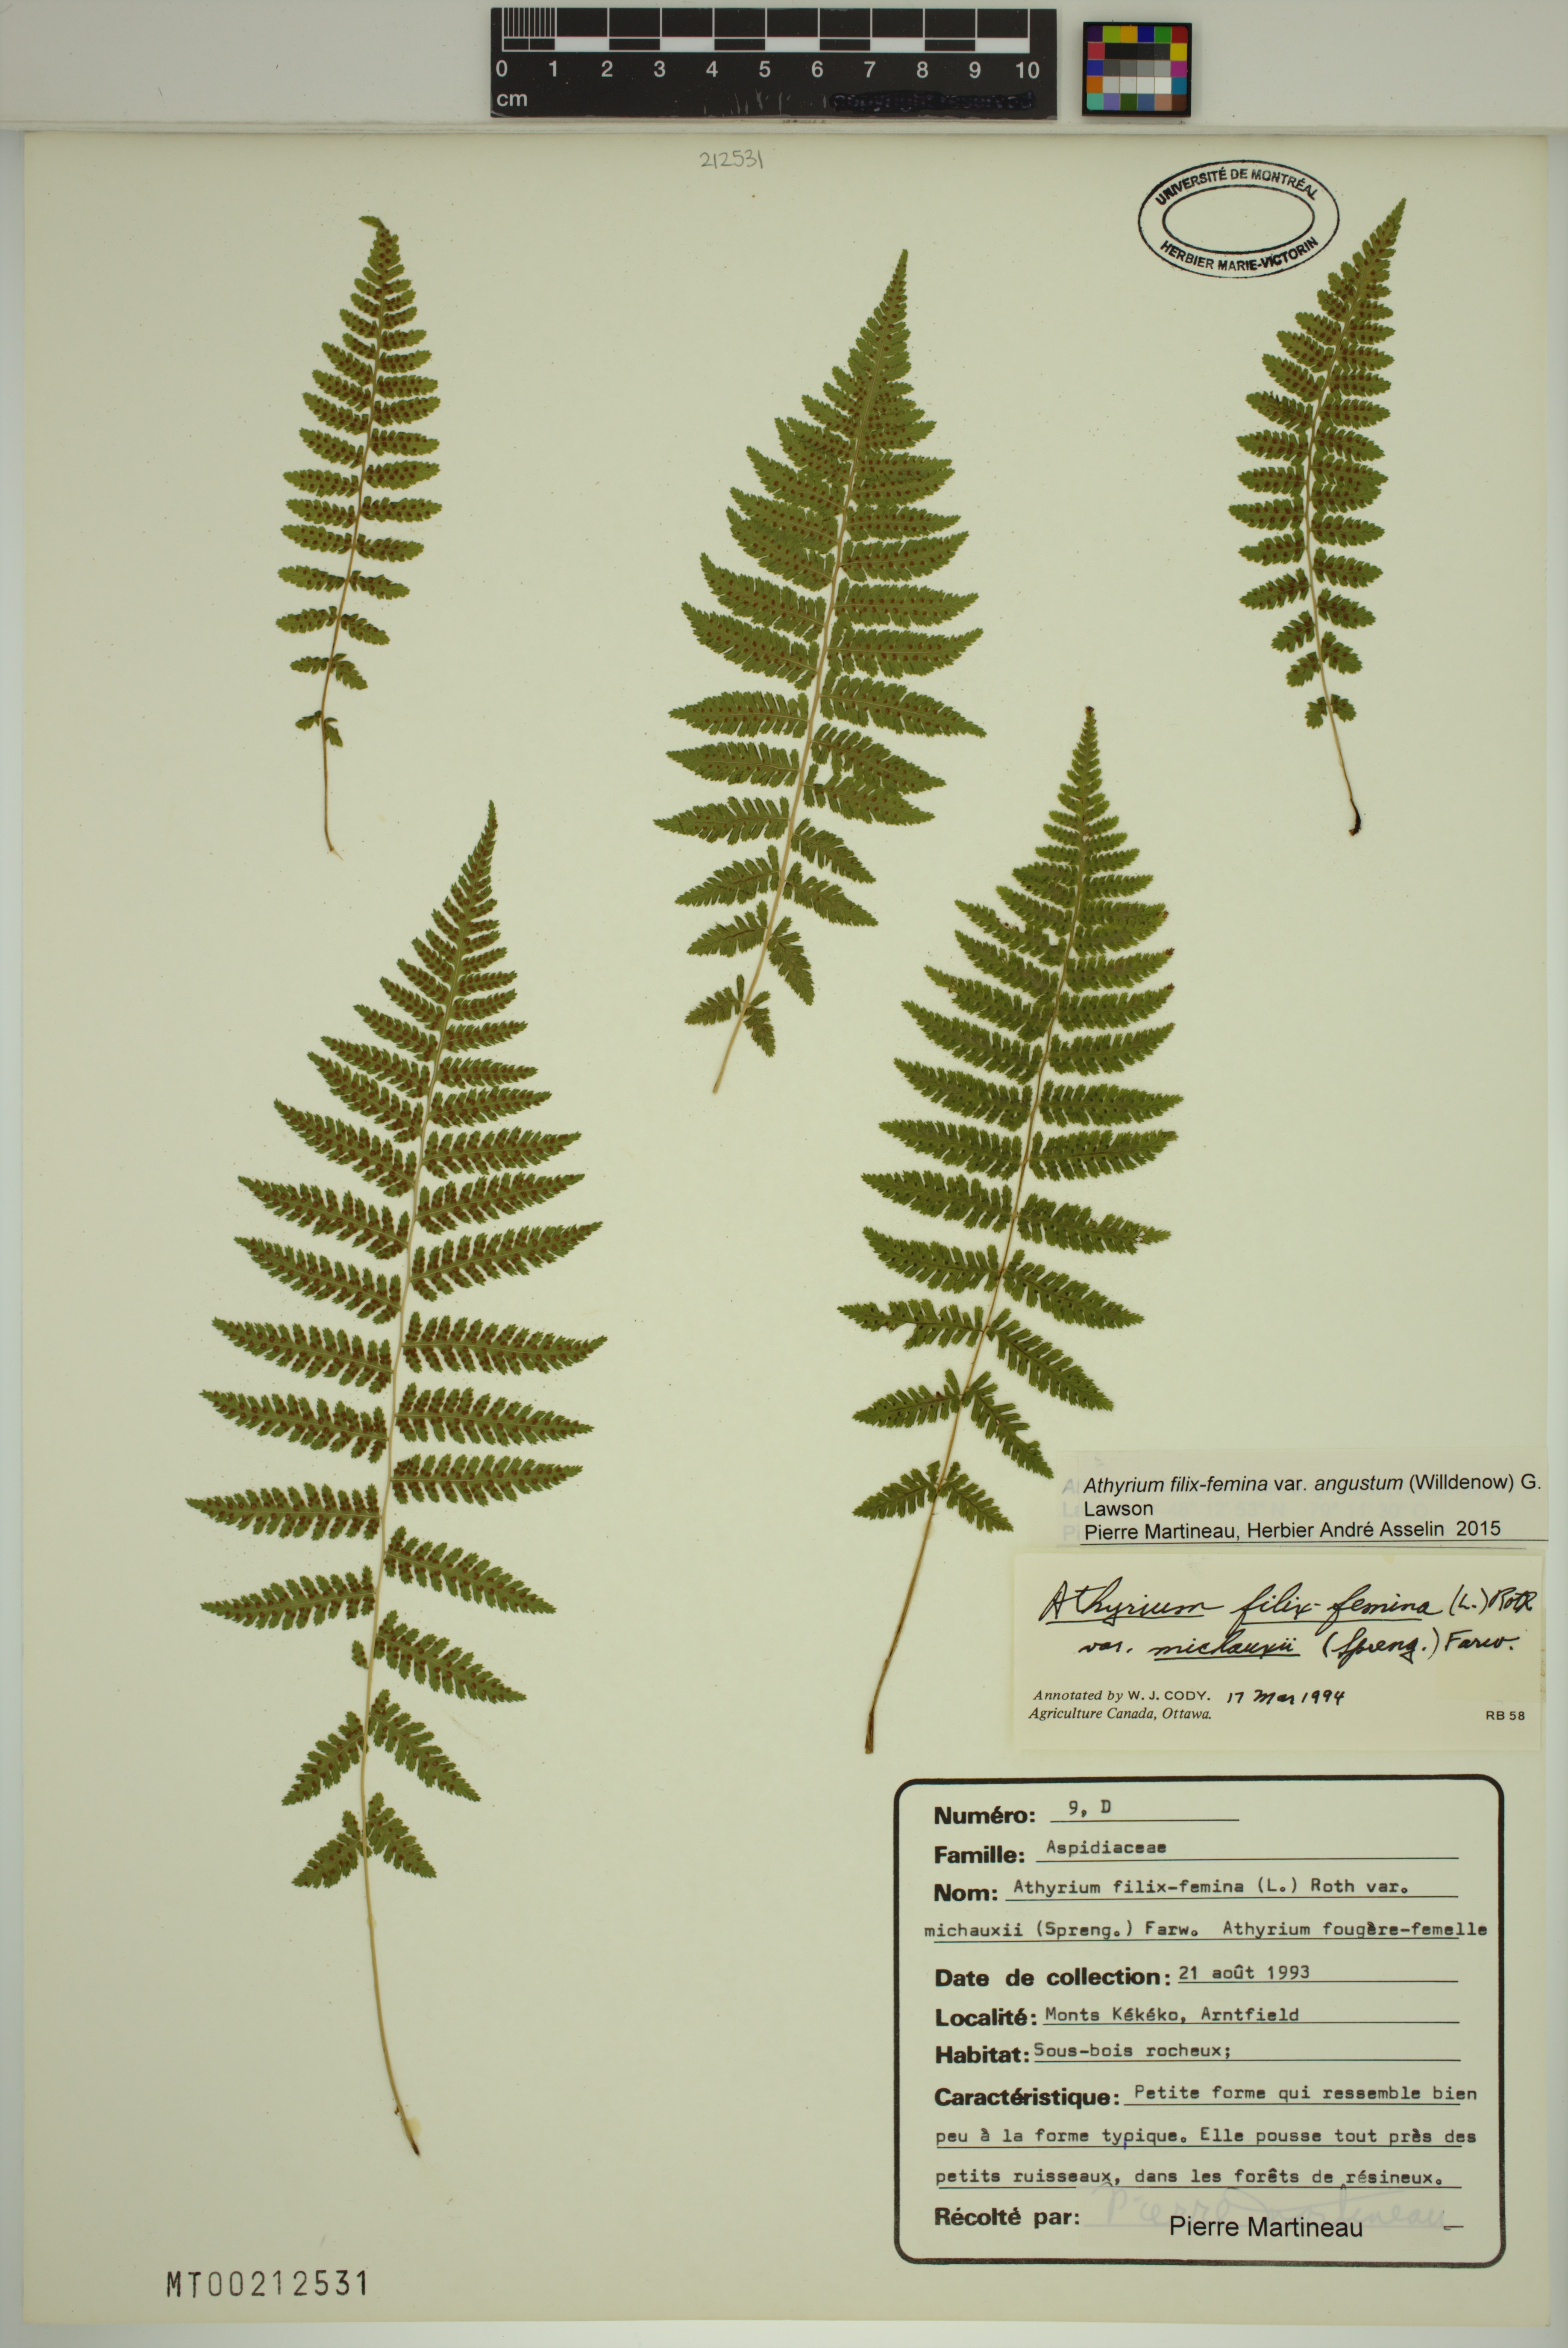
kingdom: Plantae
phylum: Tracheophyta
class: Polypodiopsida
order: Polypodiales
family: Athyriaceae
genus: Athyrium
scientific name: Athyrium angustum
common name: Northern lady fern
